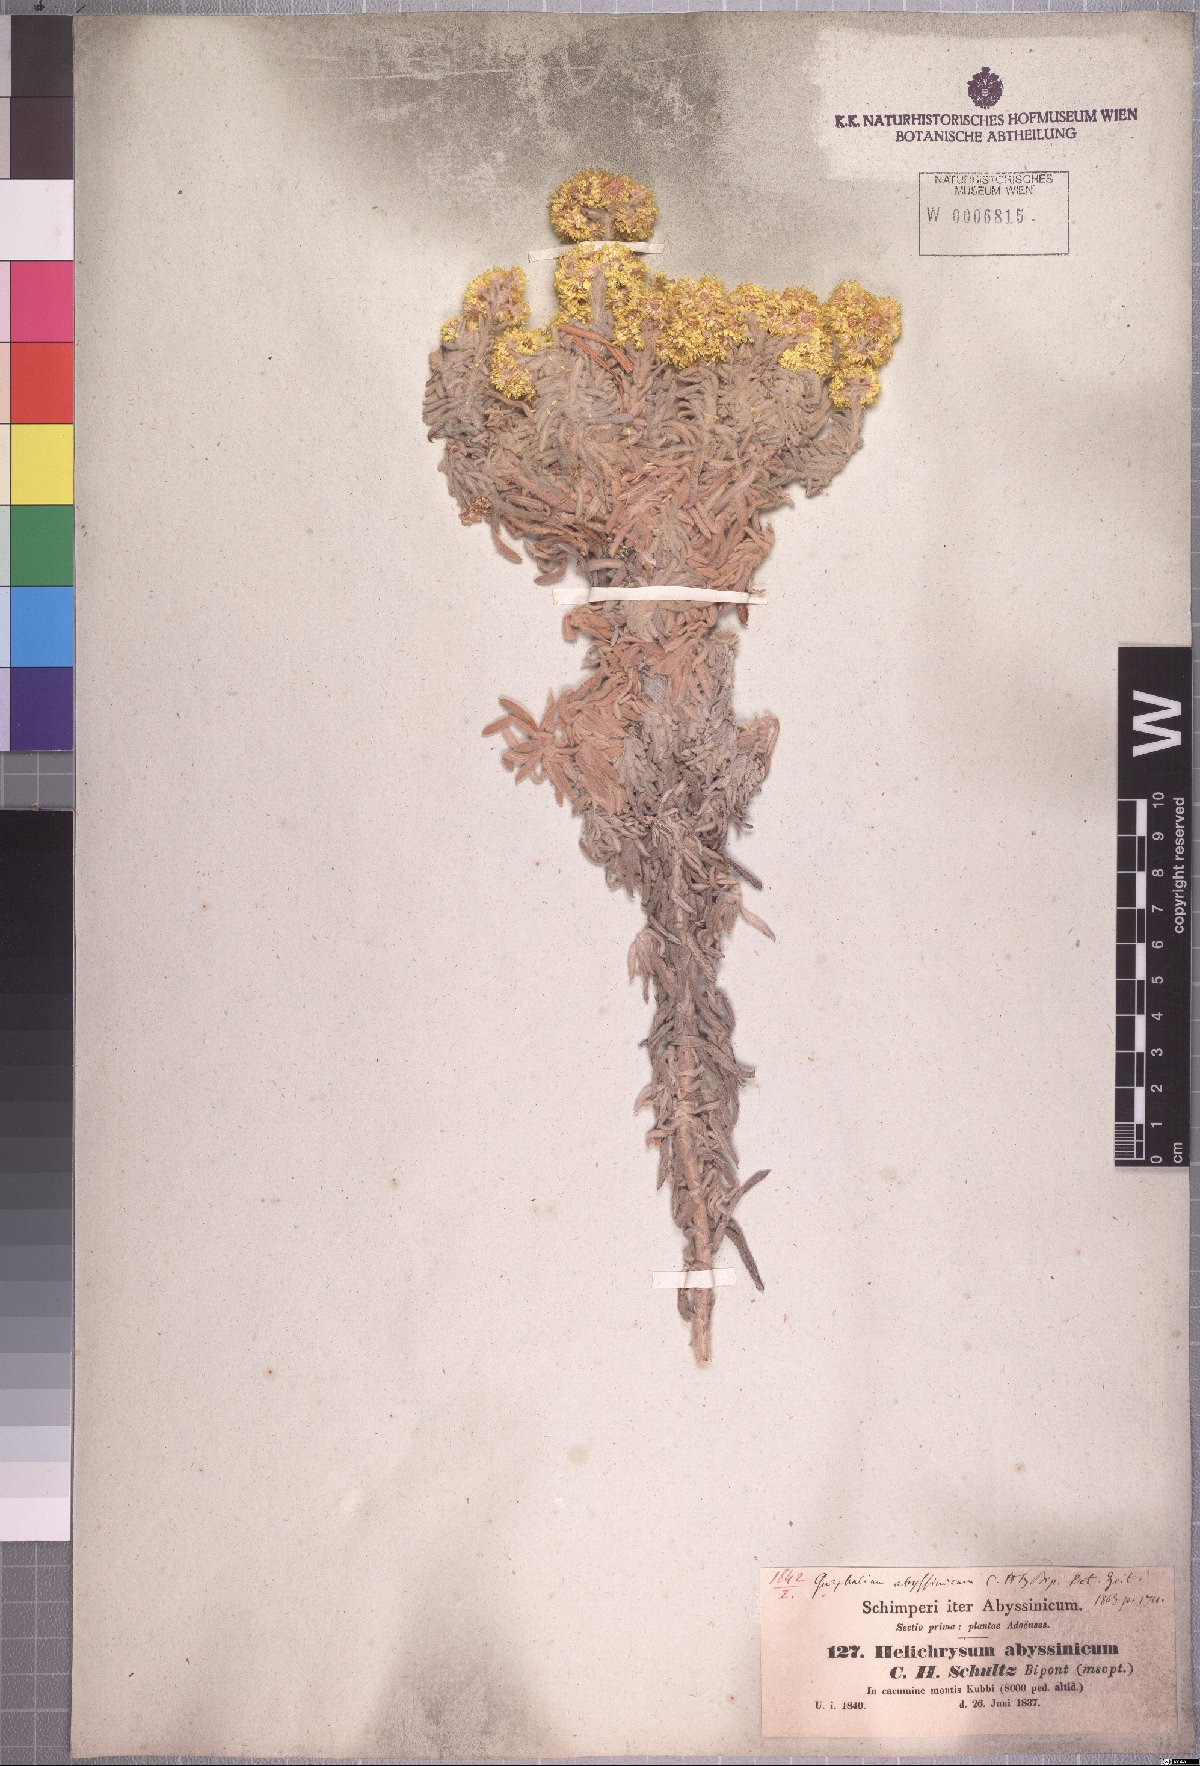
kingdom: Plantae
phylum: Tracheophyta
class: Magnoliopsida
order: Asterales
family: Asteraceae
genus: Helichrysum
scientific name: Helichrysum splendidum
